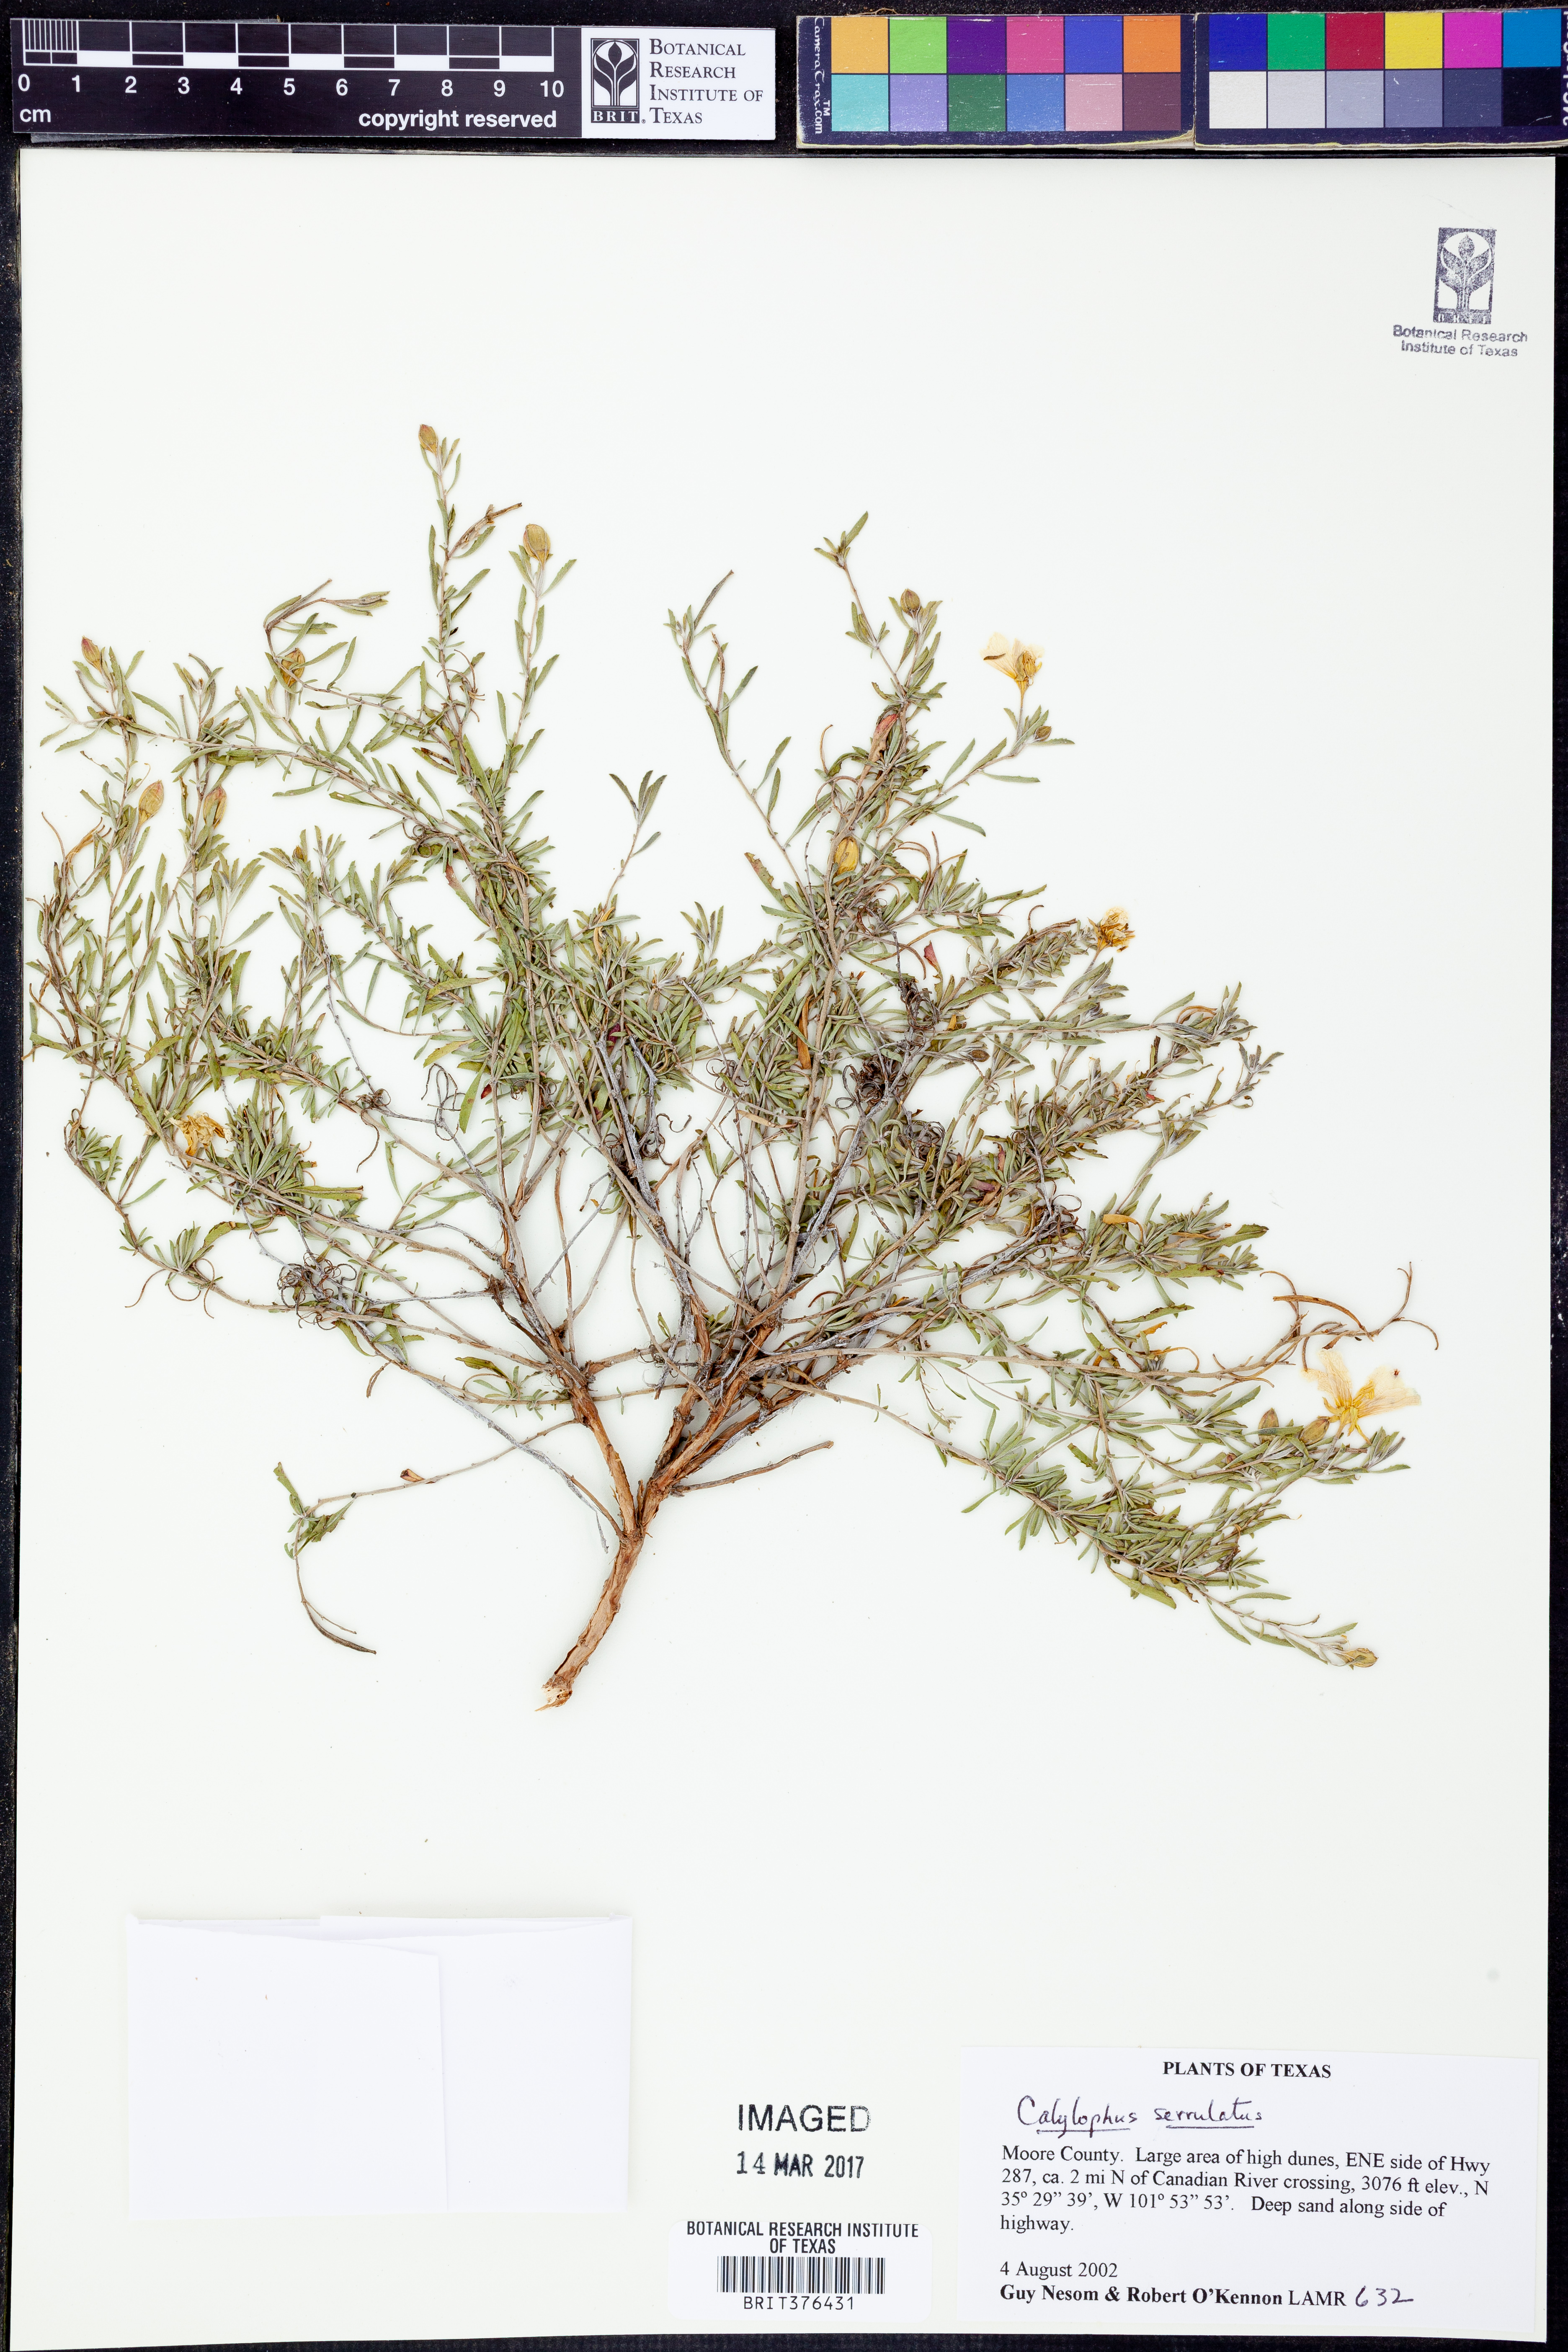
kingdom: Plantae
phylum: Tracheophyta
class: Magnoliopsida
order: Myrtales
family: Onagraceae
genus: Oenothera
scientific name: Oenothera serrulata
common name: Half-shrub calylophus
